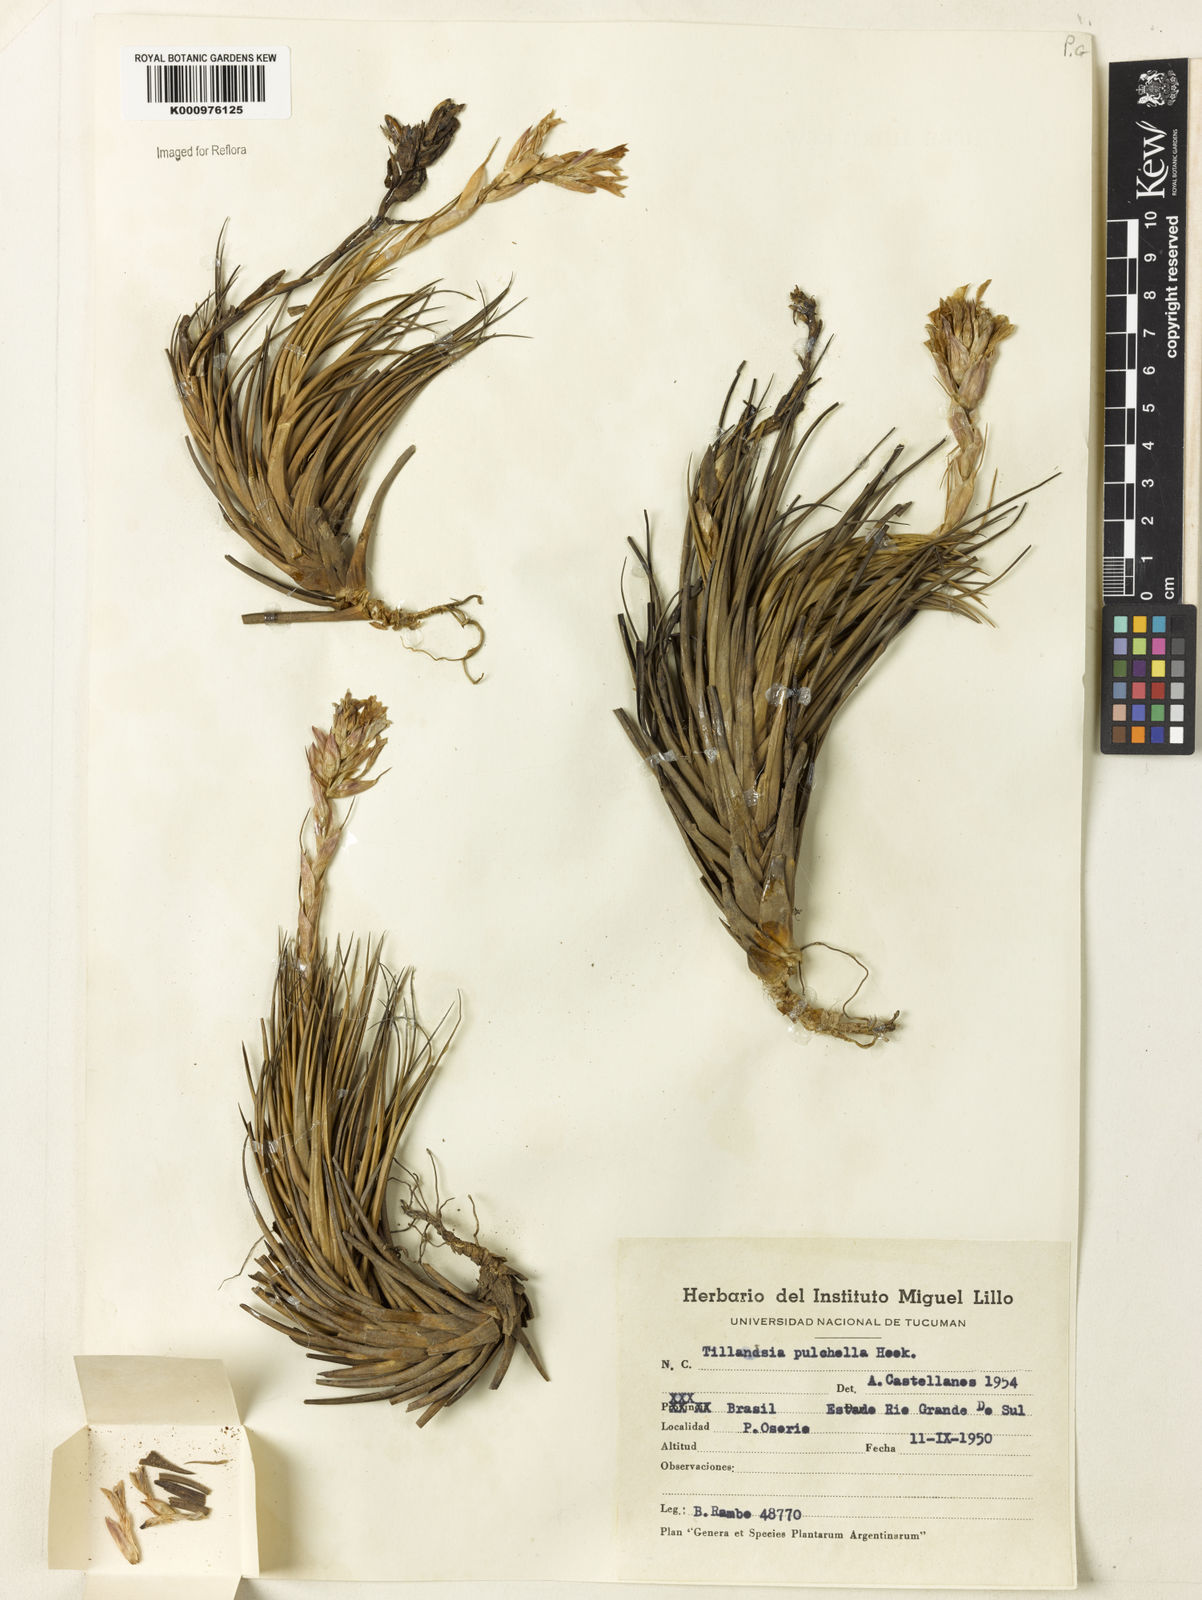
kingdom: Plantae
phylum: Tracheophyta
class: Liliopsida
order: Poales
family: Bromeliaceae
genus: Tillandsia
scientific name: Tillandsia tenuifolia
